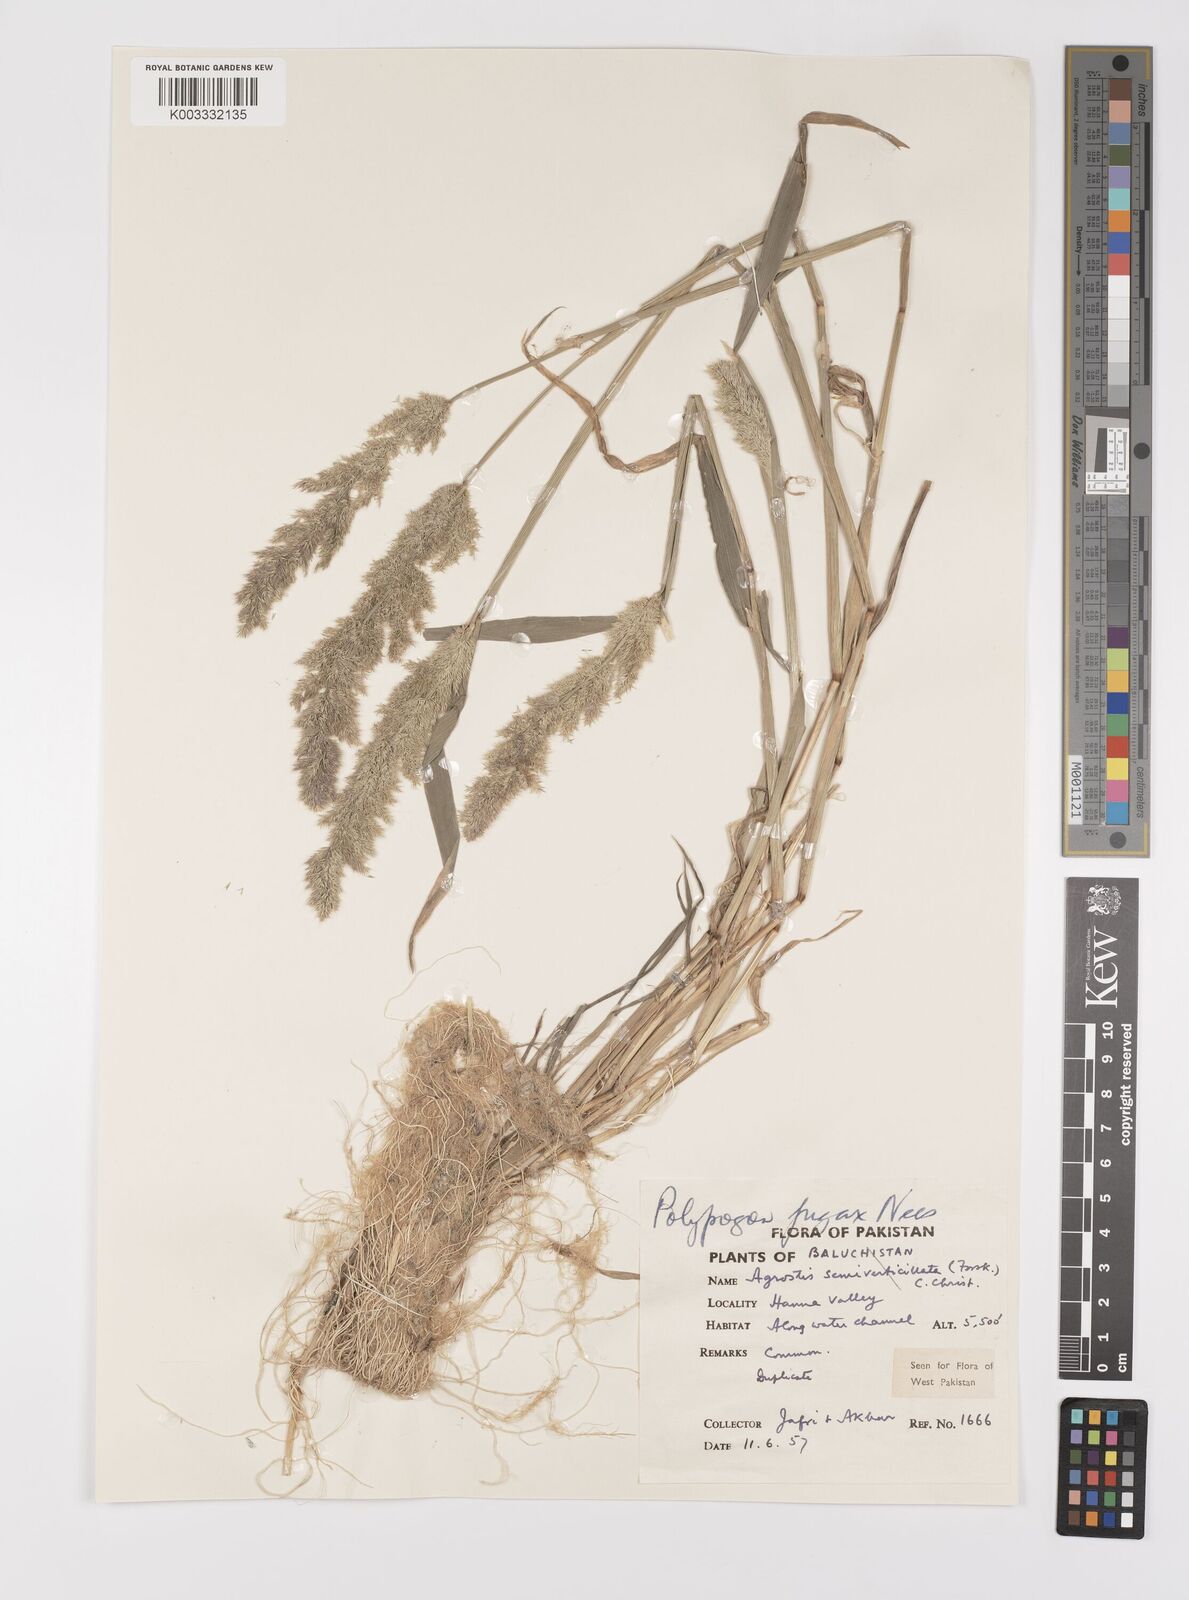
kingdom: Plantae
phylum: Tracheophyta
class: Liliopsida
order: Poales
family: Poaceae
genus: Polypogon
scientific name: Polypogon fugax
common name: Asia minor bluegrass
